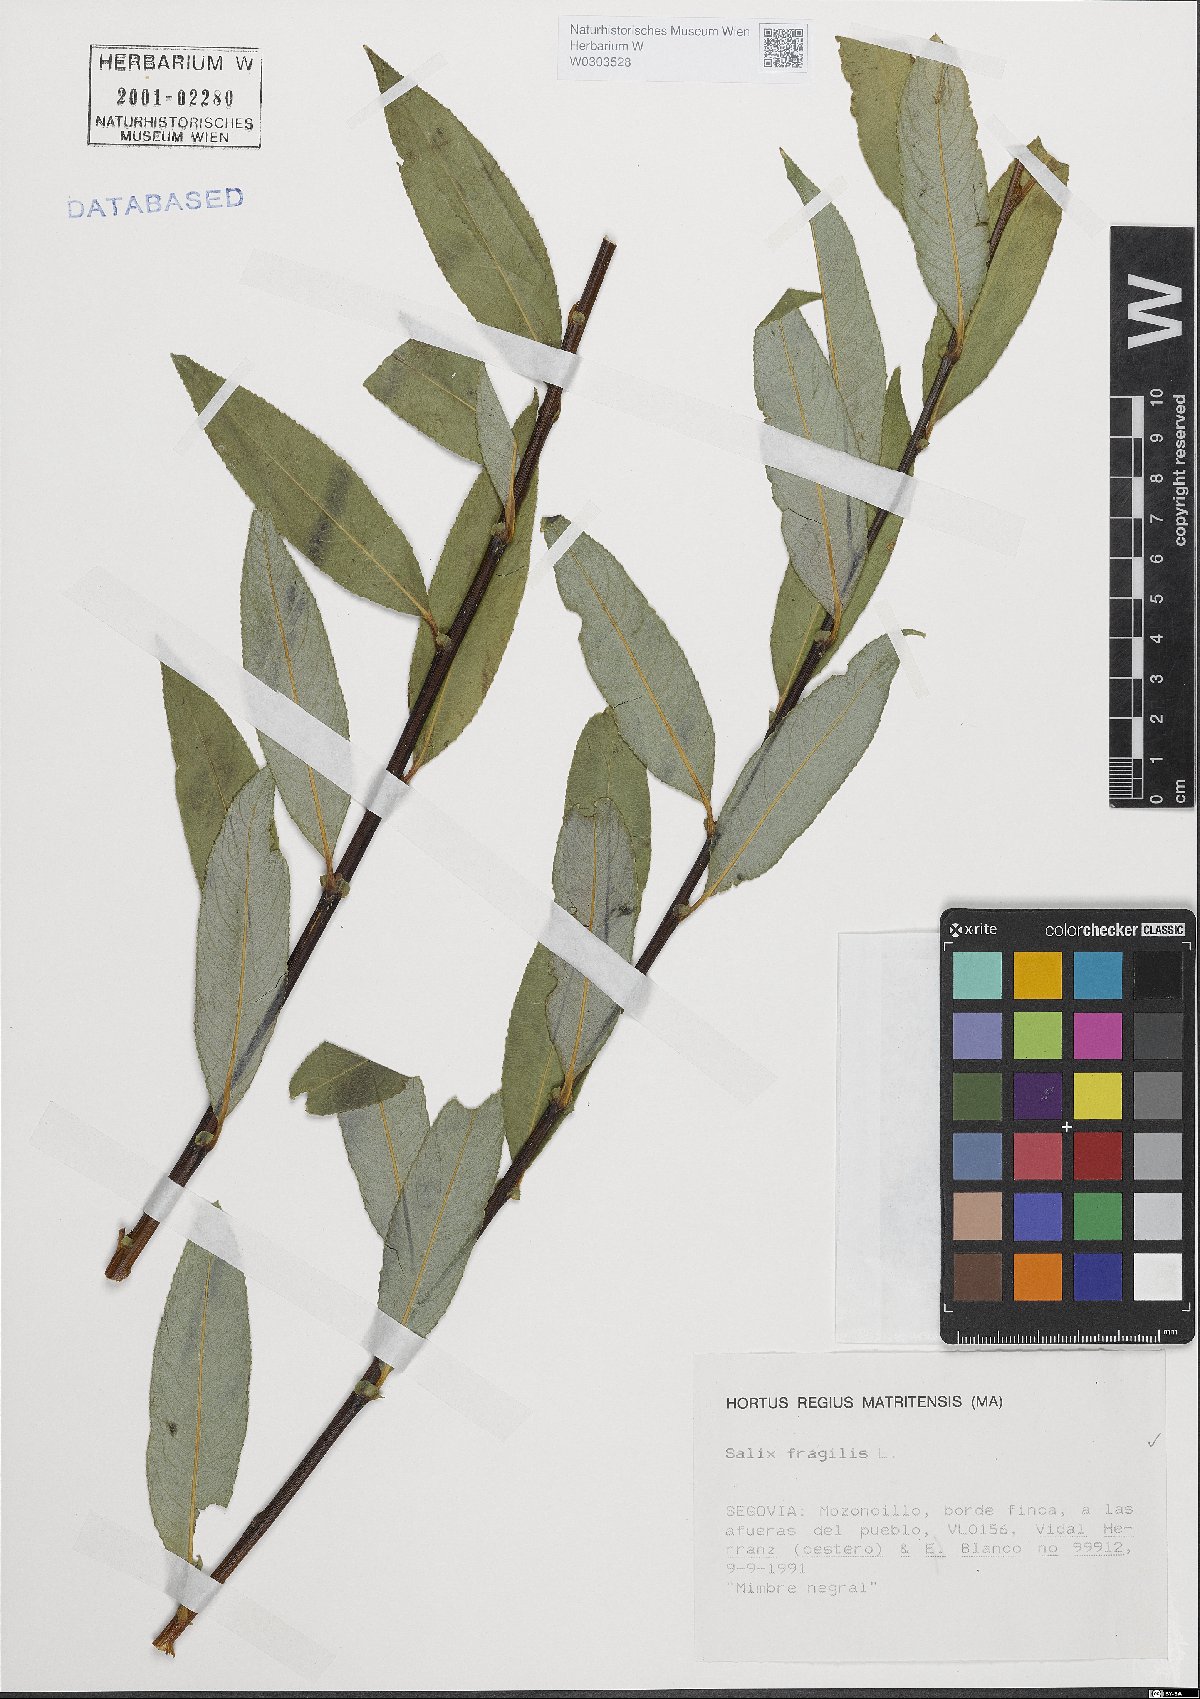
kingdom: Plantae
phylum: Tracheophyta
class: Magnoliopsida
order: Malpighiales
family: Salicaceae
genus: Salix
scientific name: Salix fragilis
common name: Crack willow
